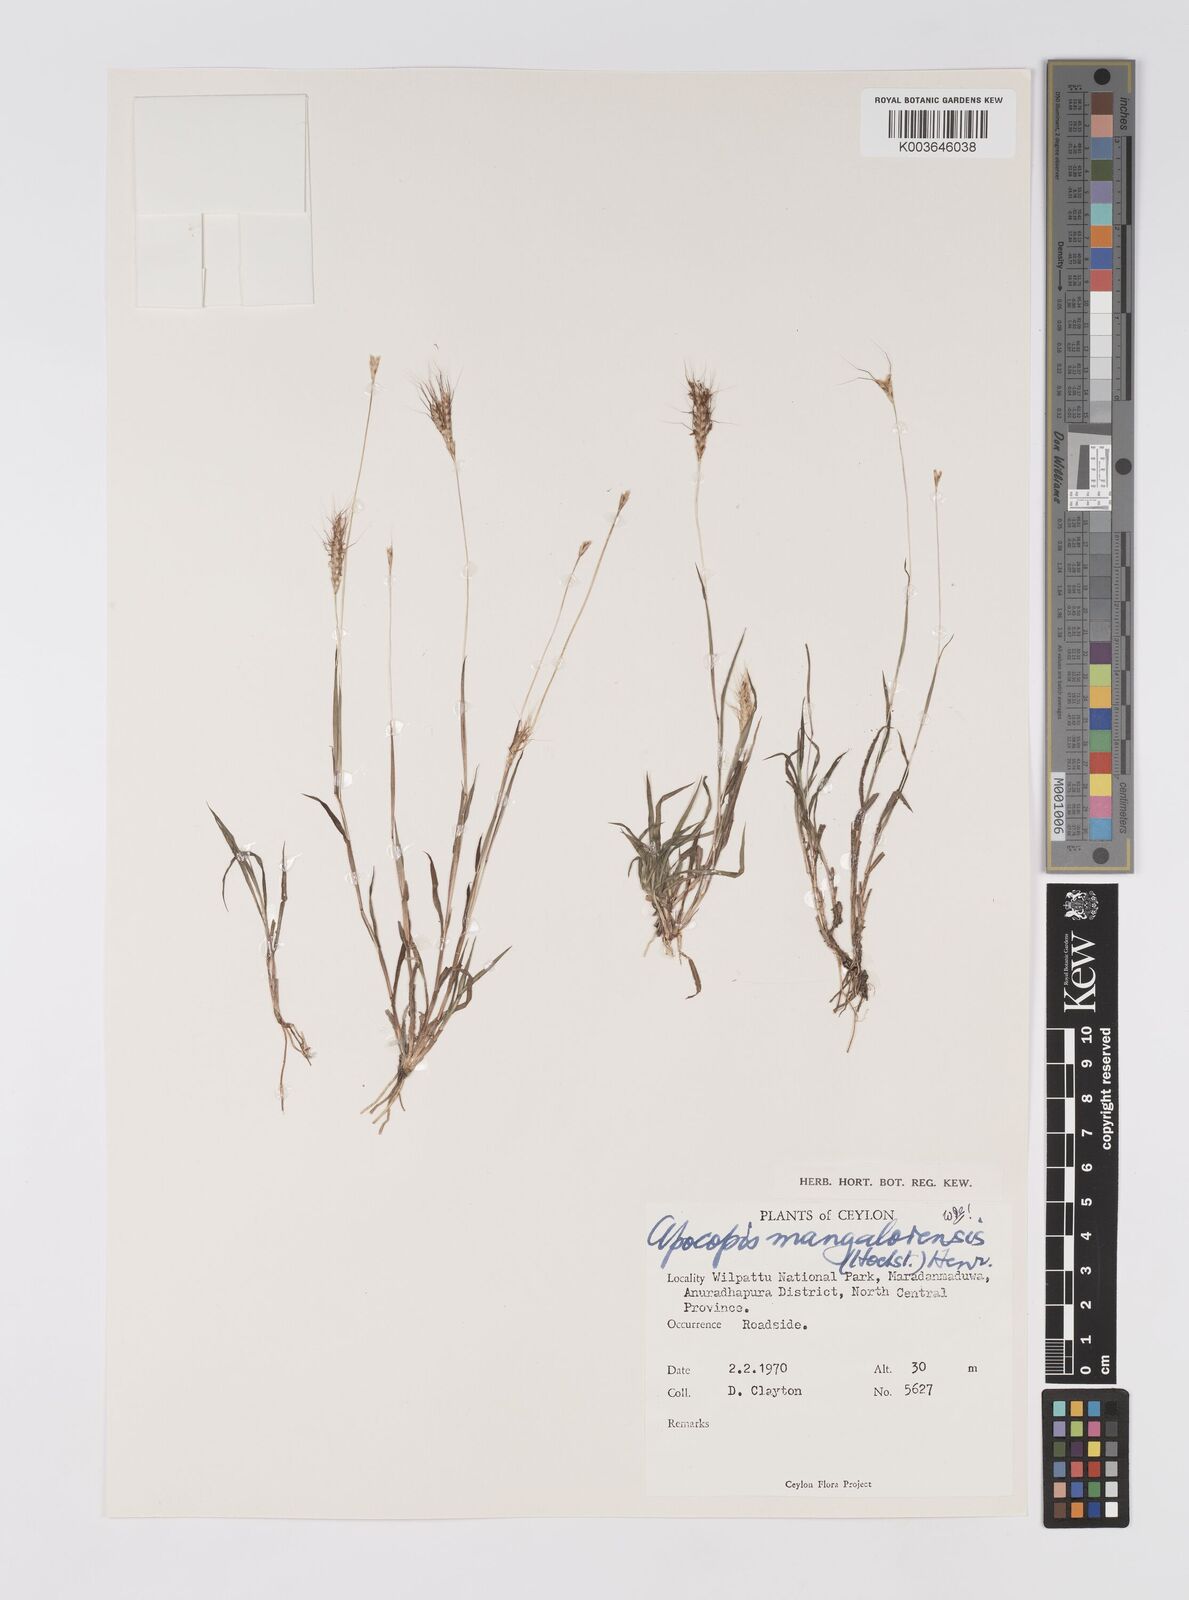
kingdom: Plantae
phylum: Tracheophyta
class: Liliopsida
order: Poales
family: Poaceae
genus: Apocopis
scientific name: Apocopis mangalorensis
